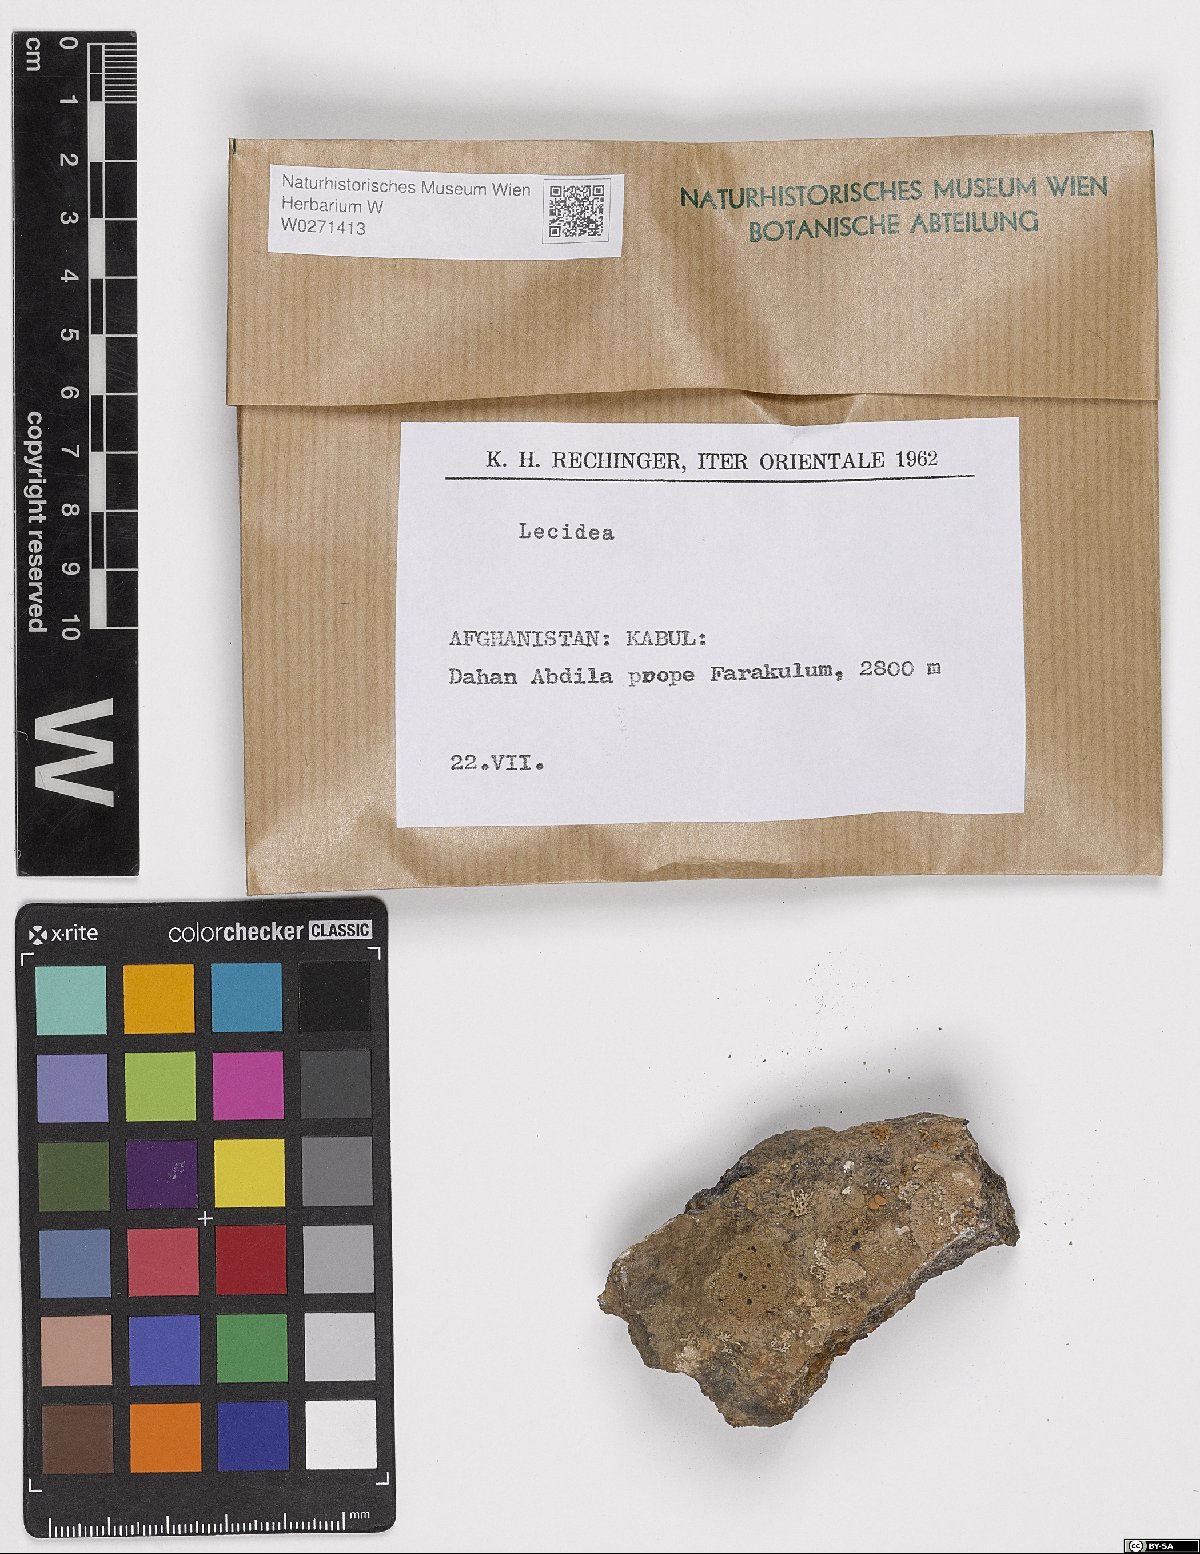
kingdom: Fungi
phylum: Ascomycota
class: Lecanoromycetes
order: Lecideales
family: Lecideaceae
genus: Lecidea
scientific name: Lecidea
